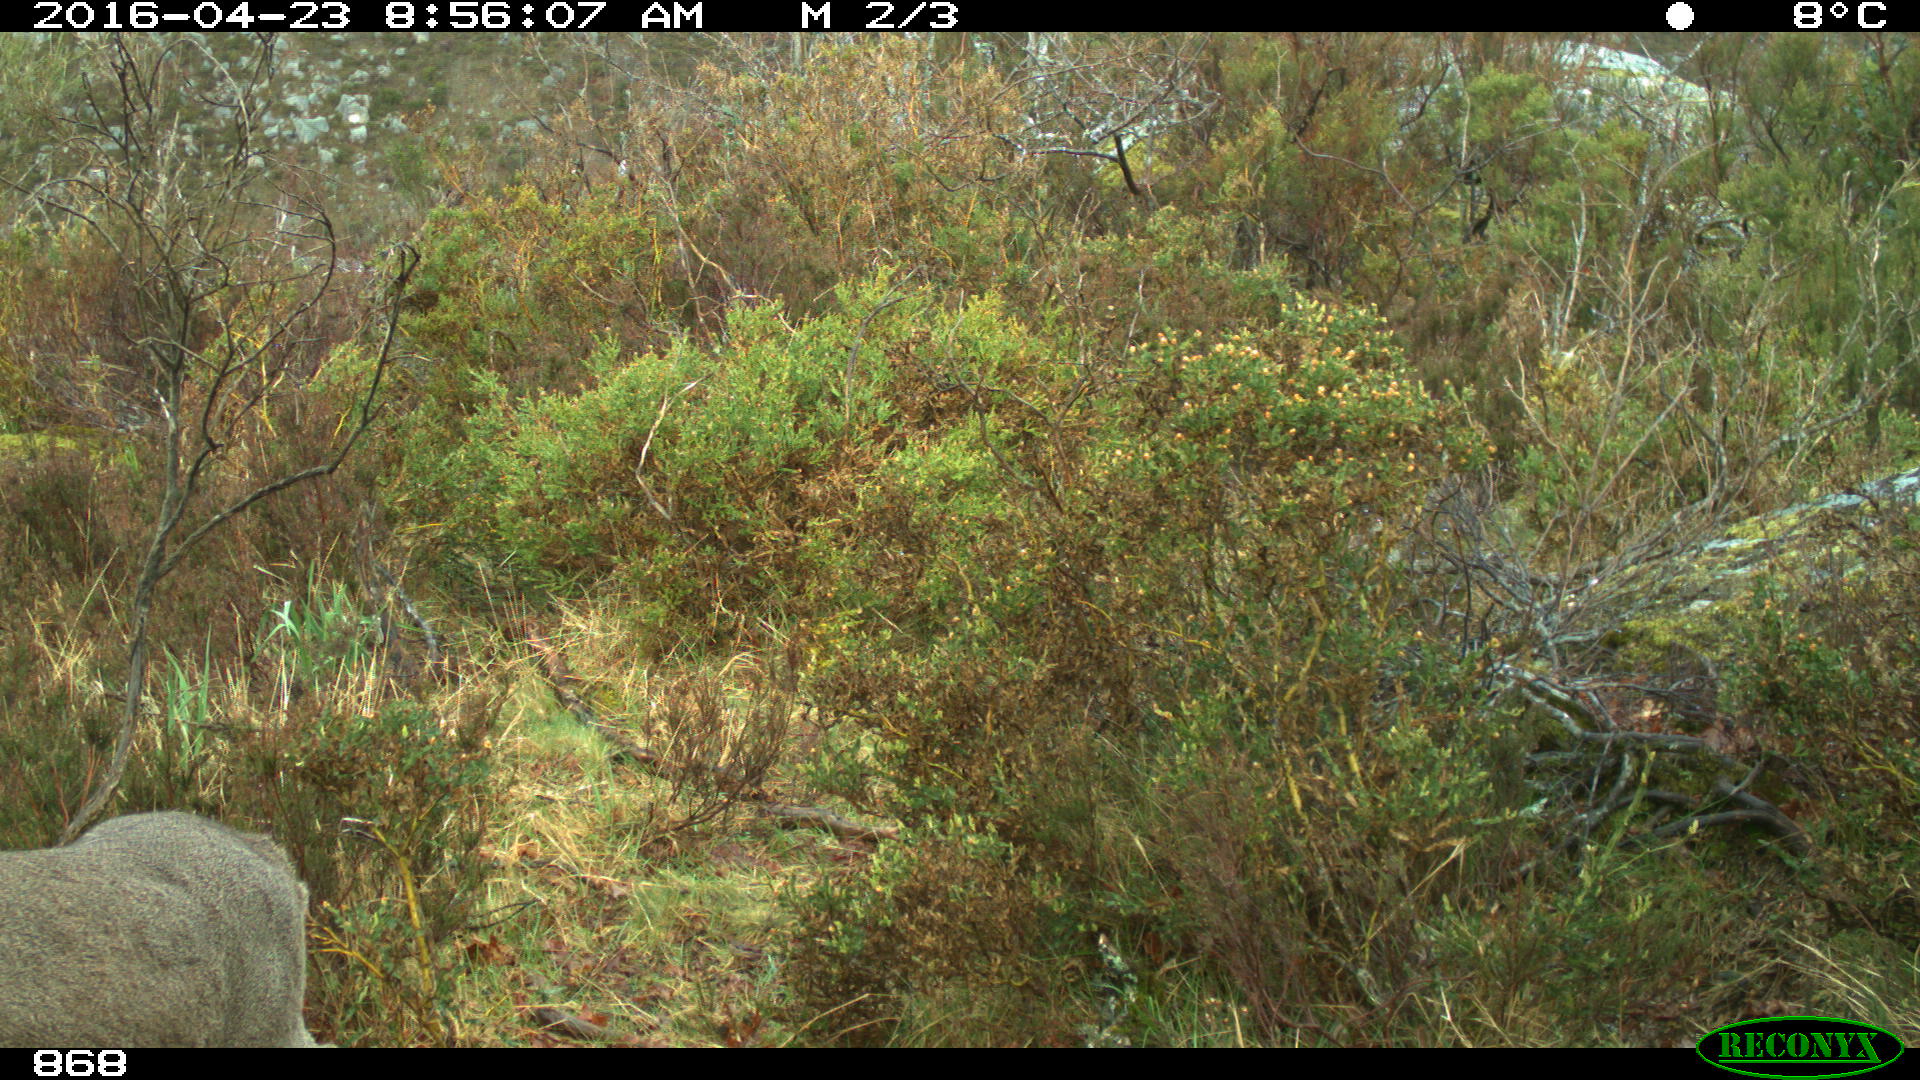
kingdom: Animalia
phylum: Chordata
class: Mammalia
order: Artiodactyla
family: Cervidae
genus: Capreolus
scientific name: Capreolus capreolus
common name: Western roe deer
